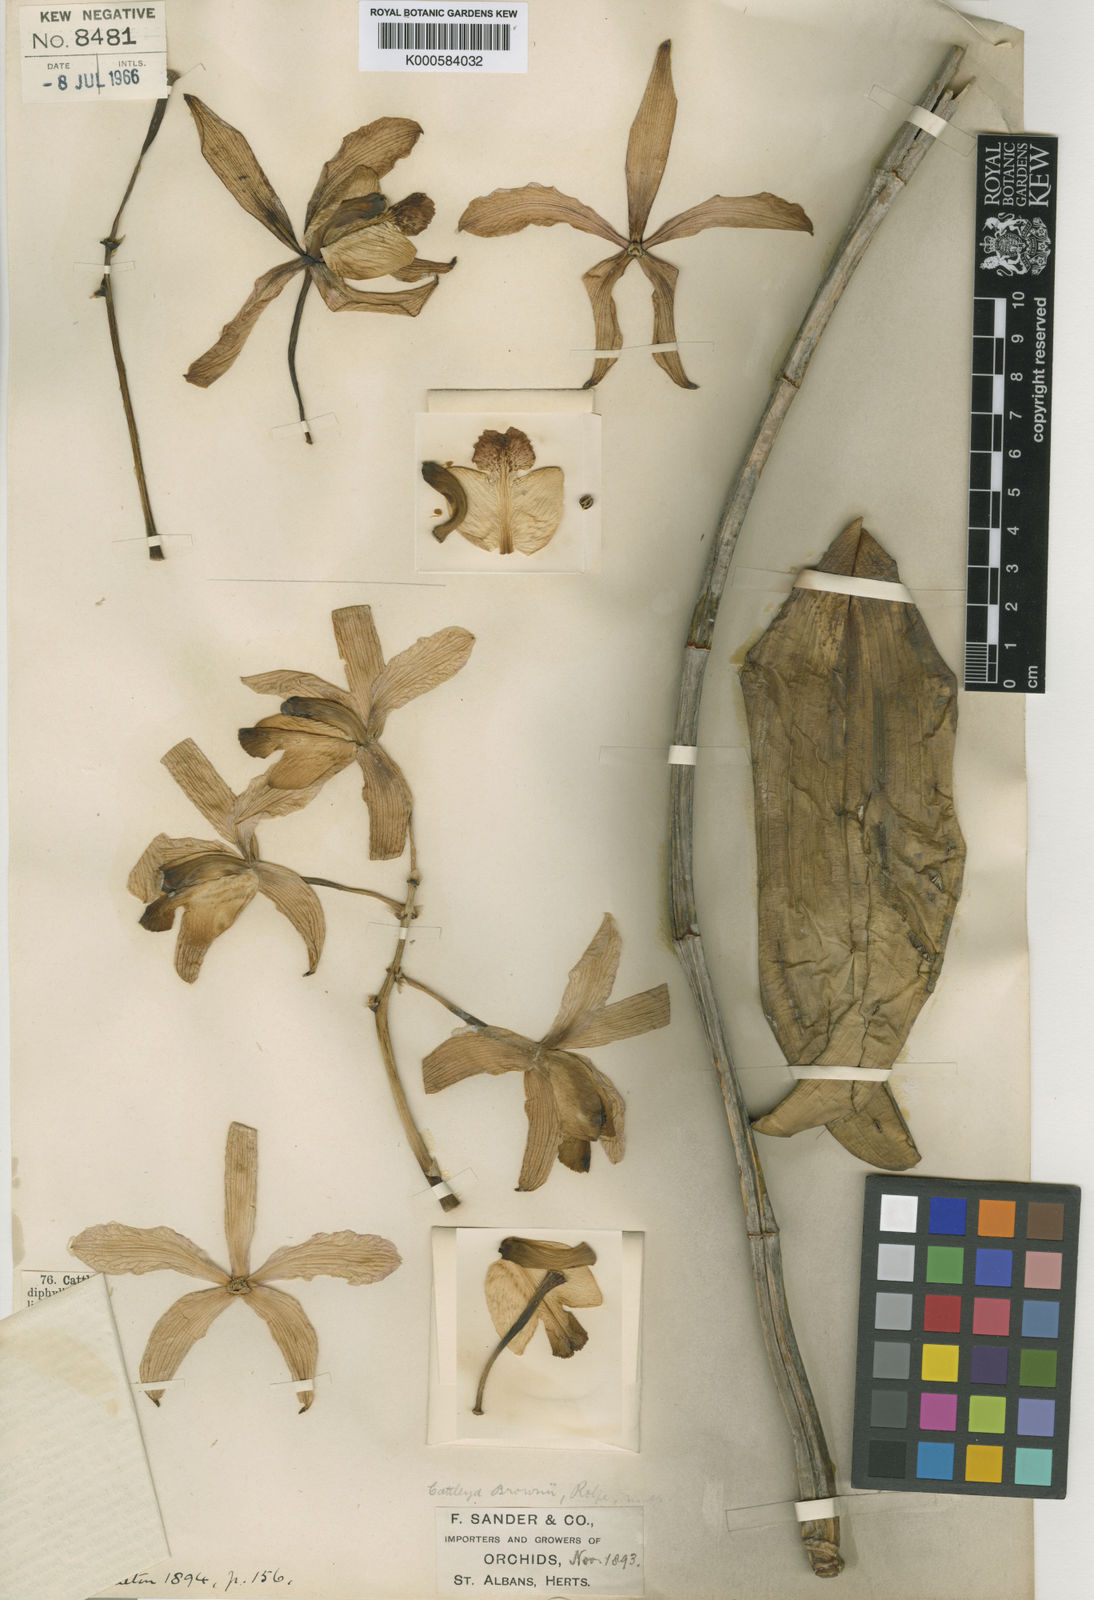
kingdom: Plantae
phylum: Tracheophyta
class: Liliopsida
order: Asparagales
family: Orchidaceae
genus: Cattleya
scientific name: Cattleya harrisoniana
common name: Harrison's cattleya
